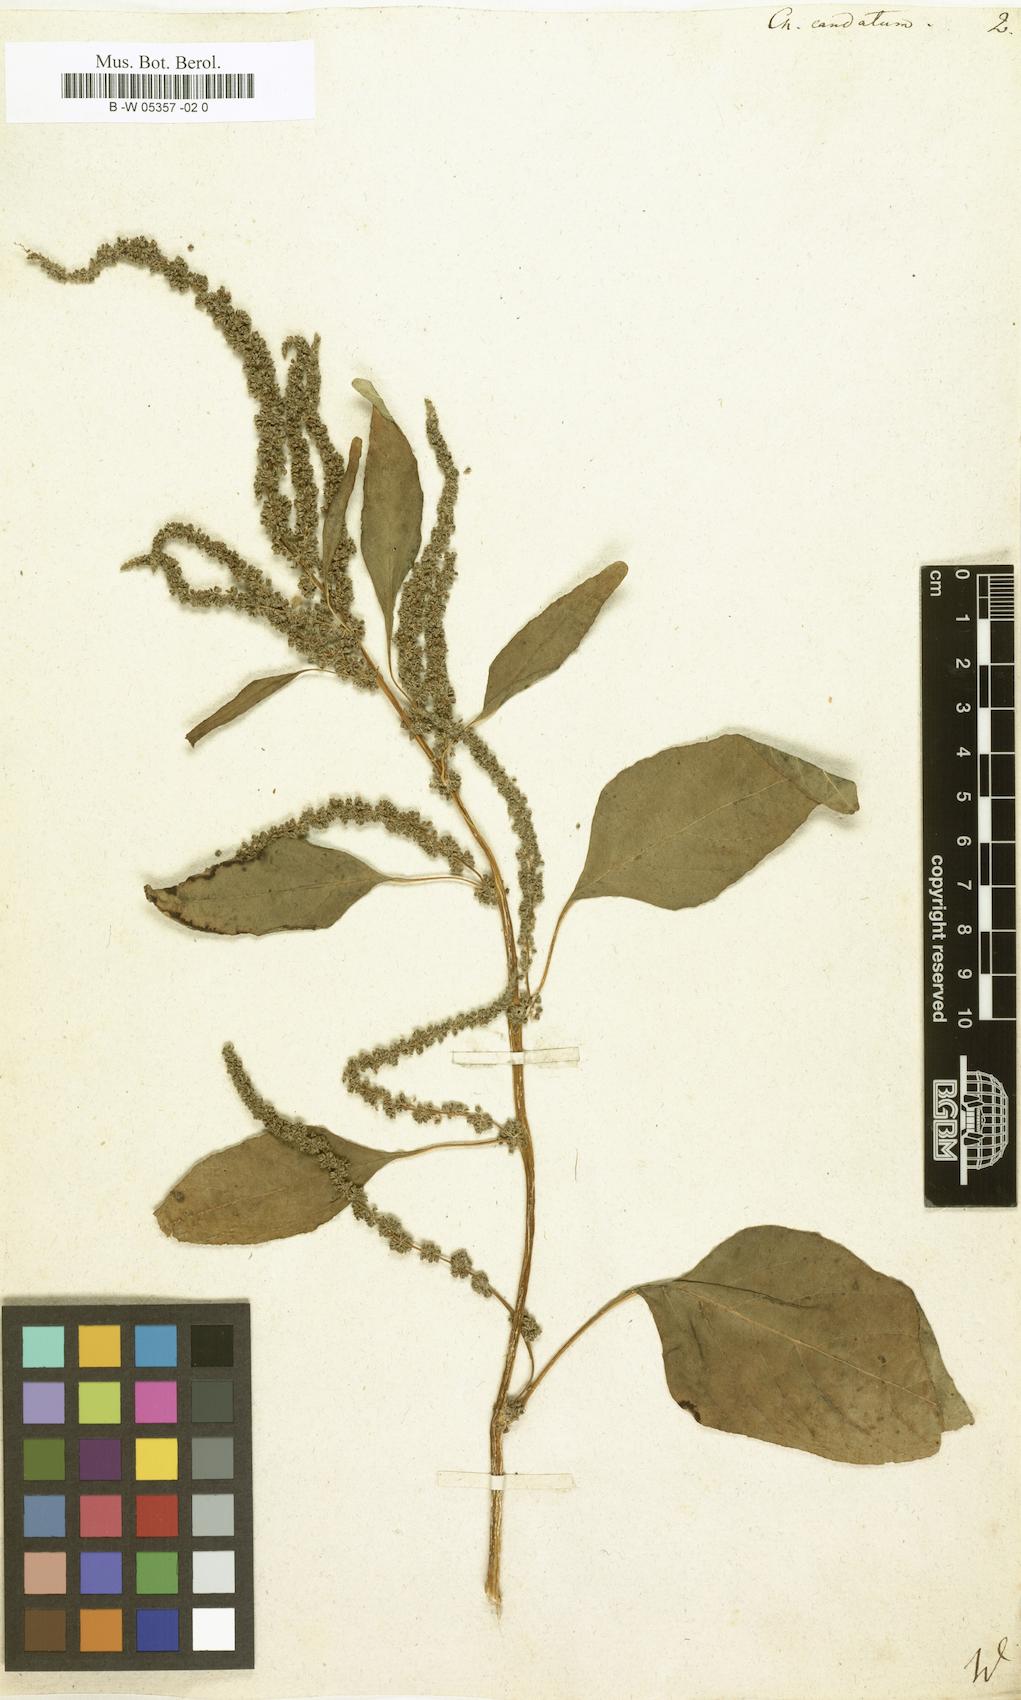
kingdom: Plantae
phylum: Tracheophyta
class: Magnoliopsida
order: Caryophyllales
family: Amaranthaceae
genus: Amaranthus
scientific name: Amaranthus viridis
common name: Slender amaranth
